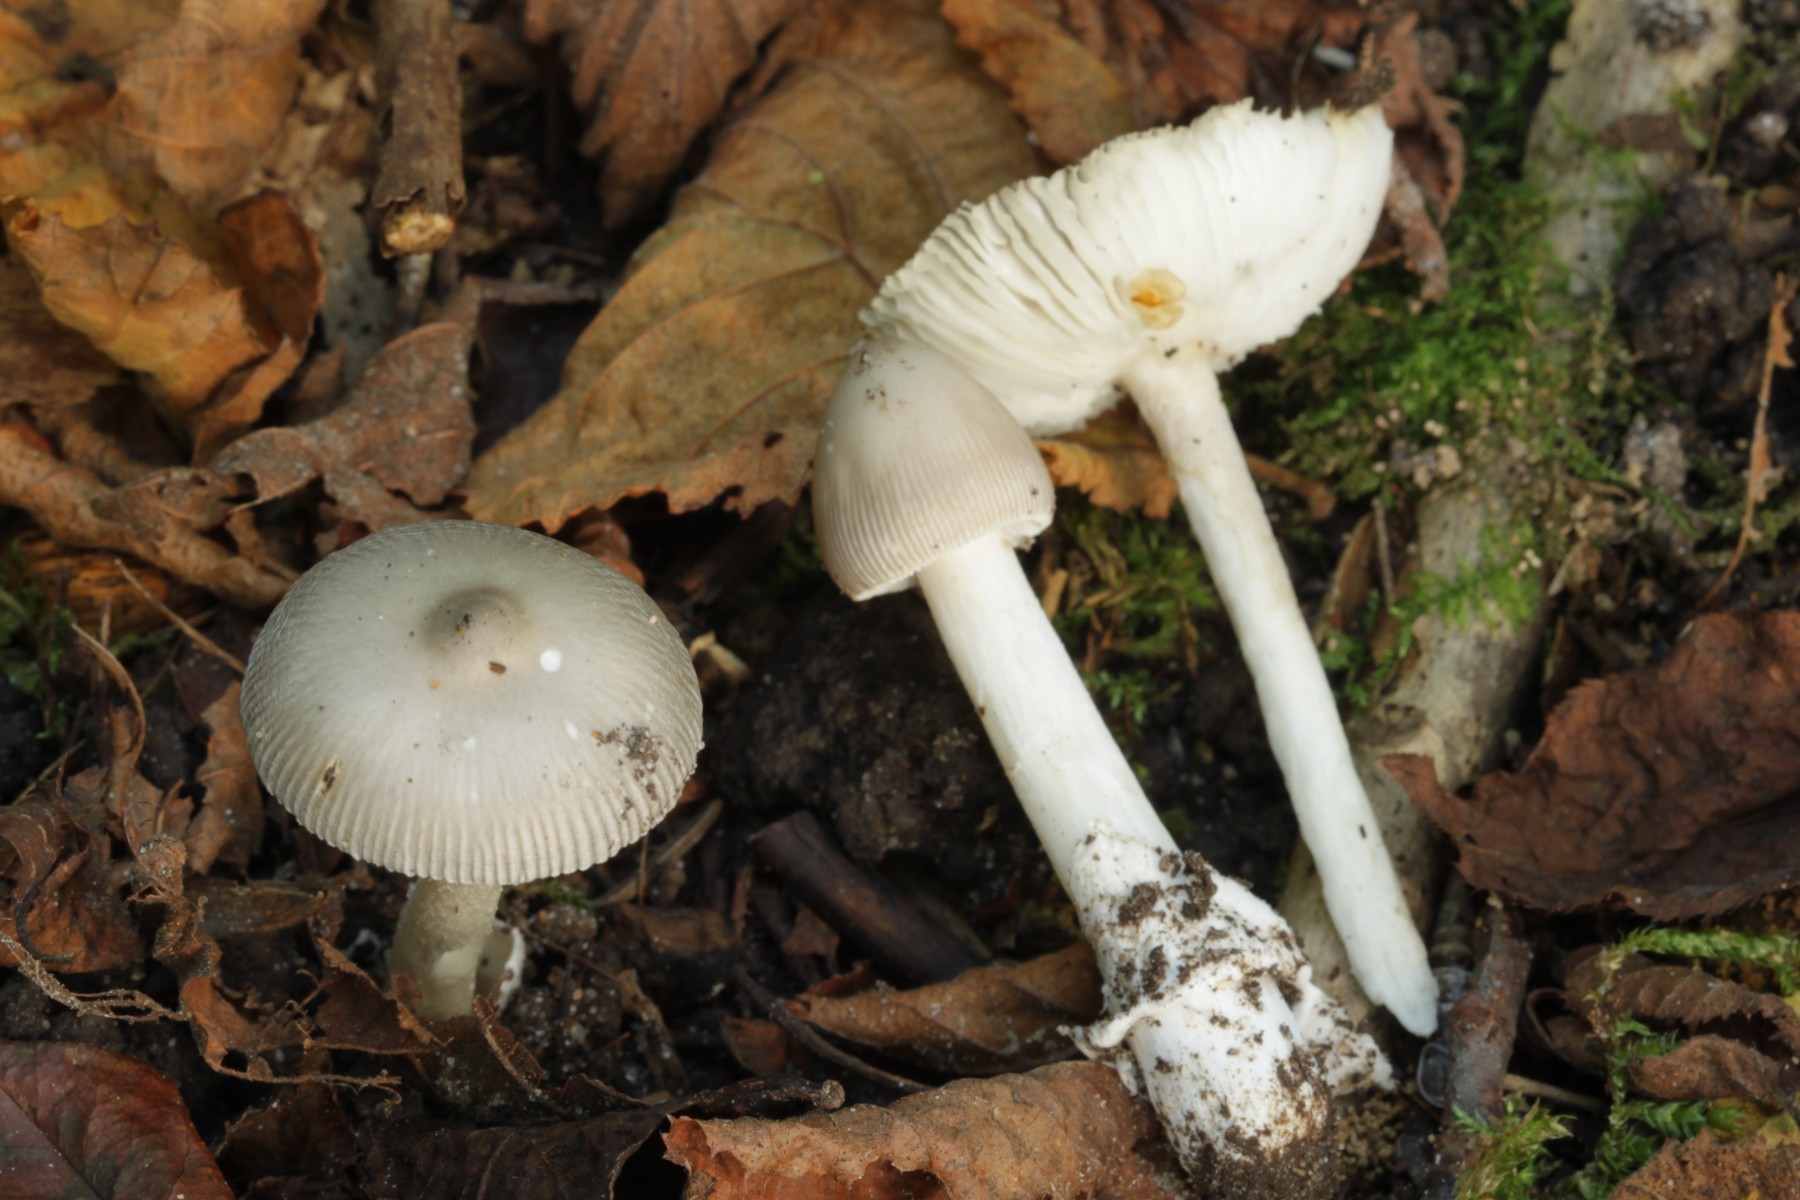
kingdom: Fungi
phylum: Basidiomycota
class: Agaricomycetes
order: Agaricales
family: Amanitaceae
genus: Amanita
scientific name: Amanita coryli
